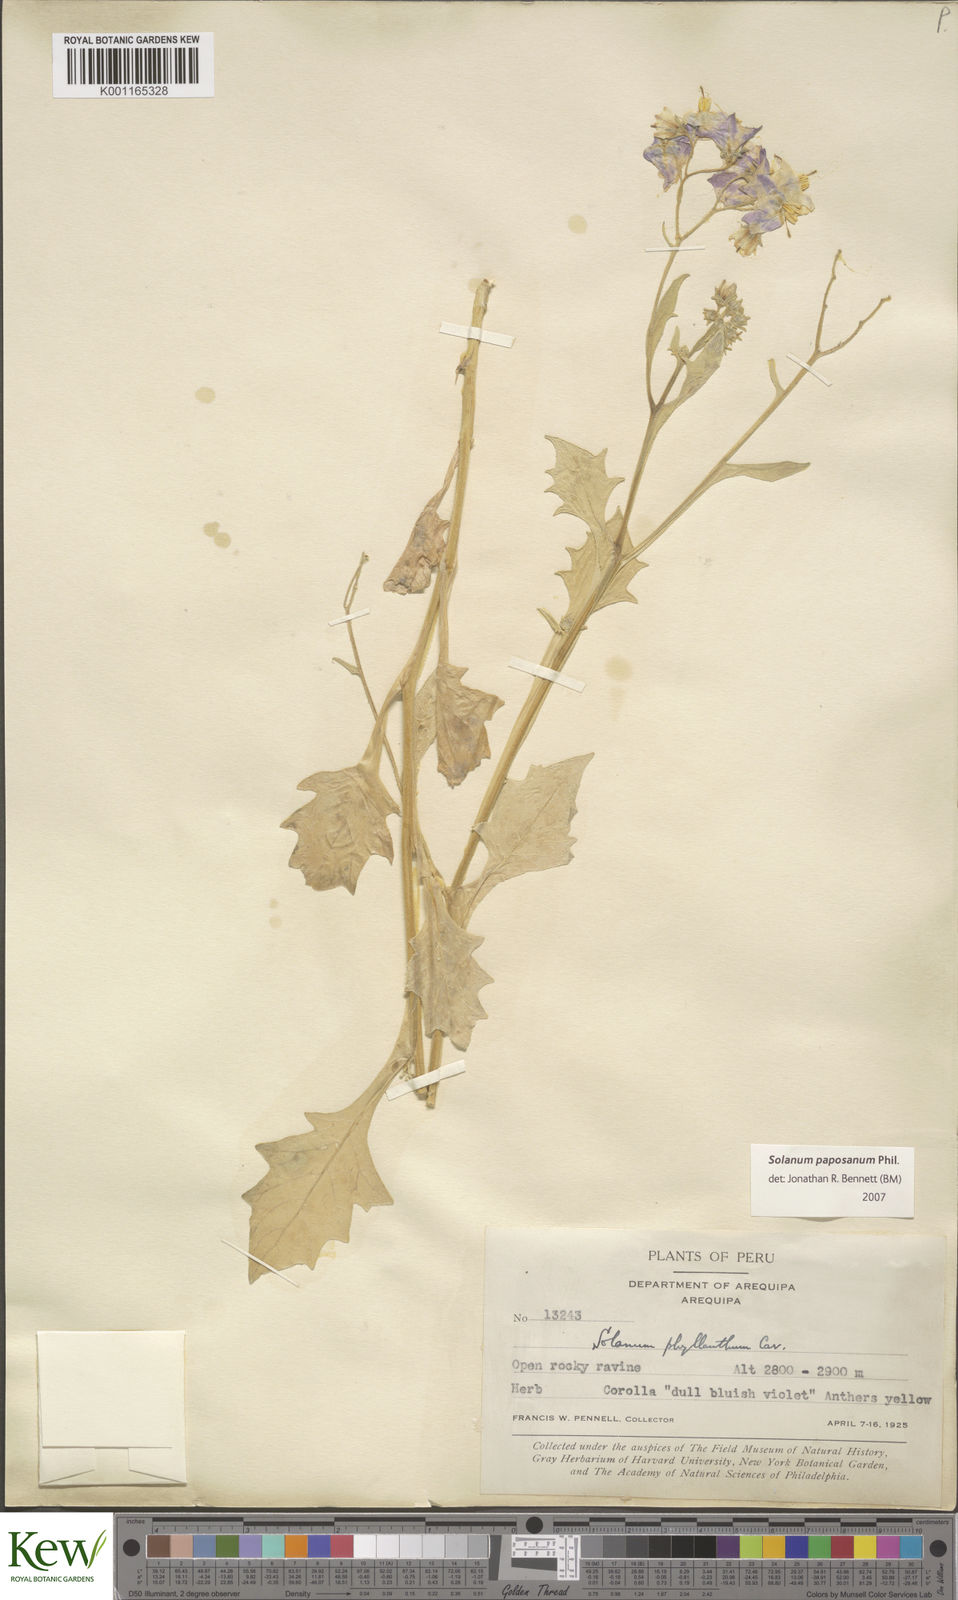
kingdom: Plantae
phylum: Tracheophyta
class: Magnoliopsida
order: Solanales
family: Solanaceae
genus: Solanum
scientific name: Solanum paposanum
